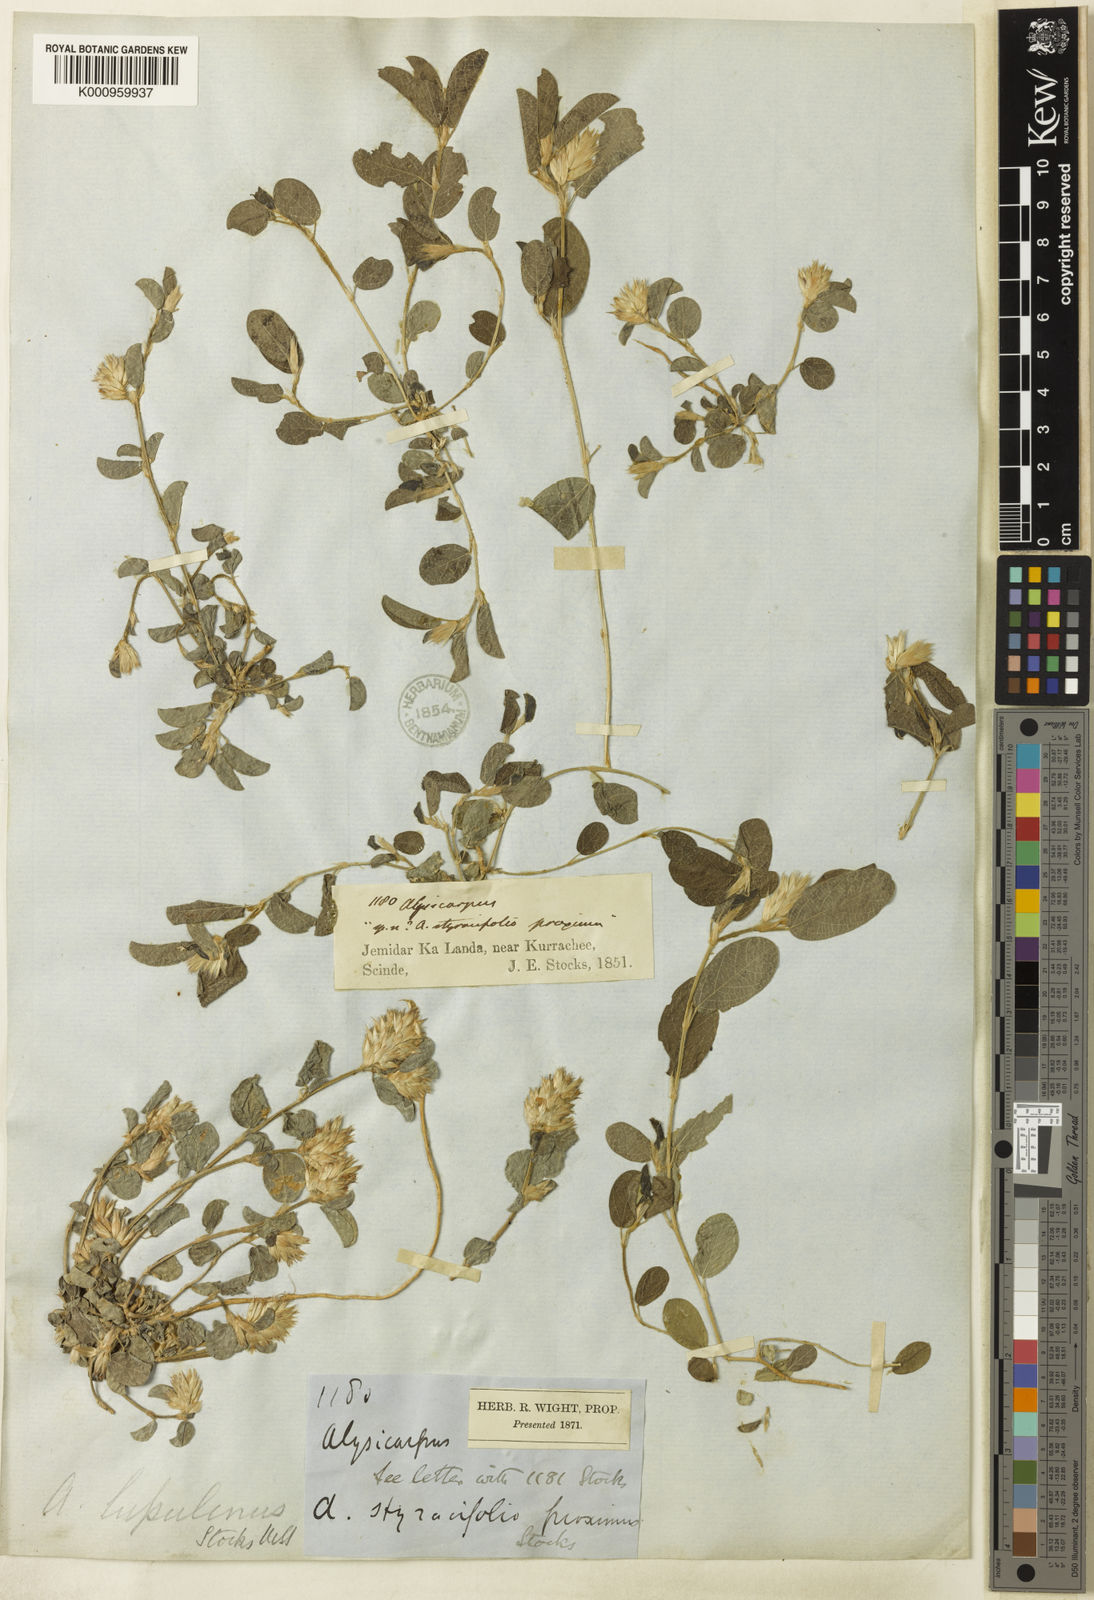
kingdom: Plantae
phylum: Tracheophyta
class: Magnoliopsida
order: Fabales
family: Fabaceae
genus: Alysicarpus
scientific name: Alysicarpus rugosus
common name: Red moneywort
